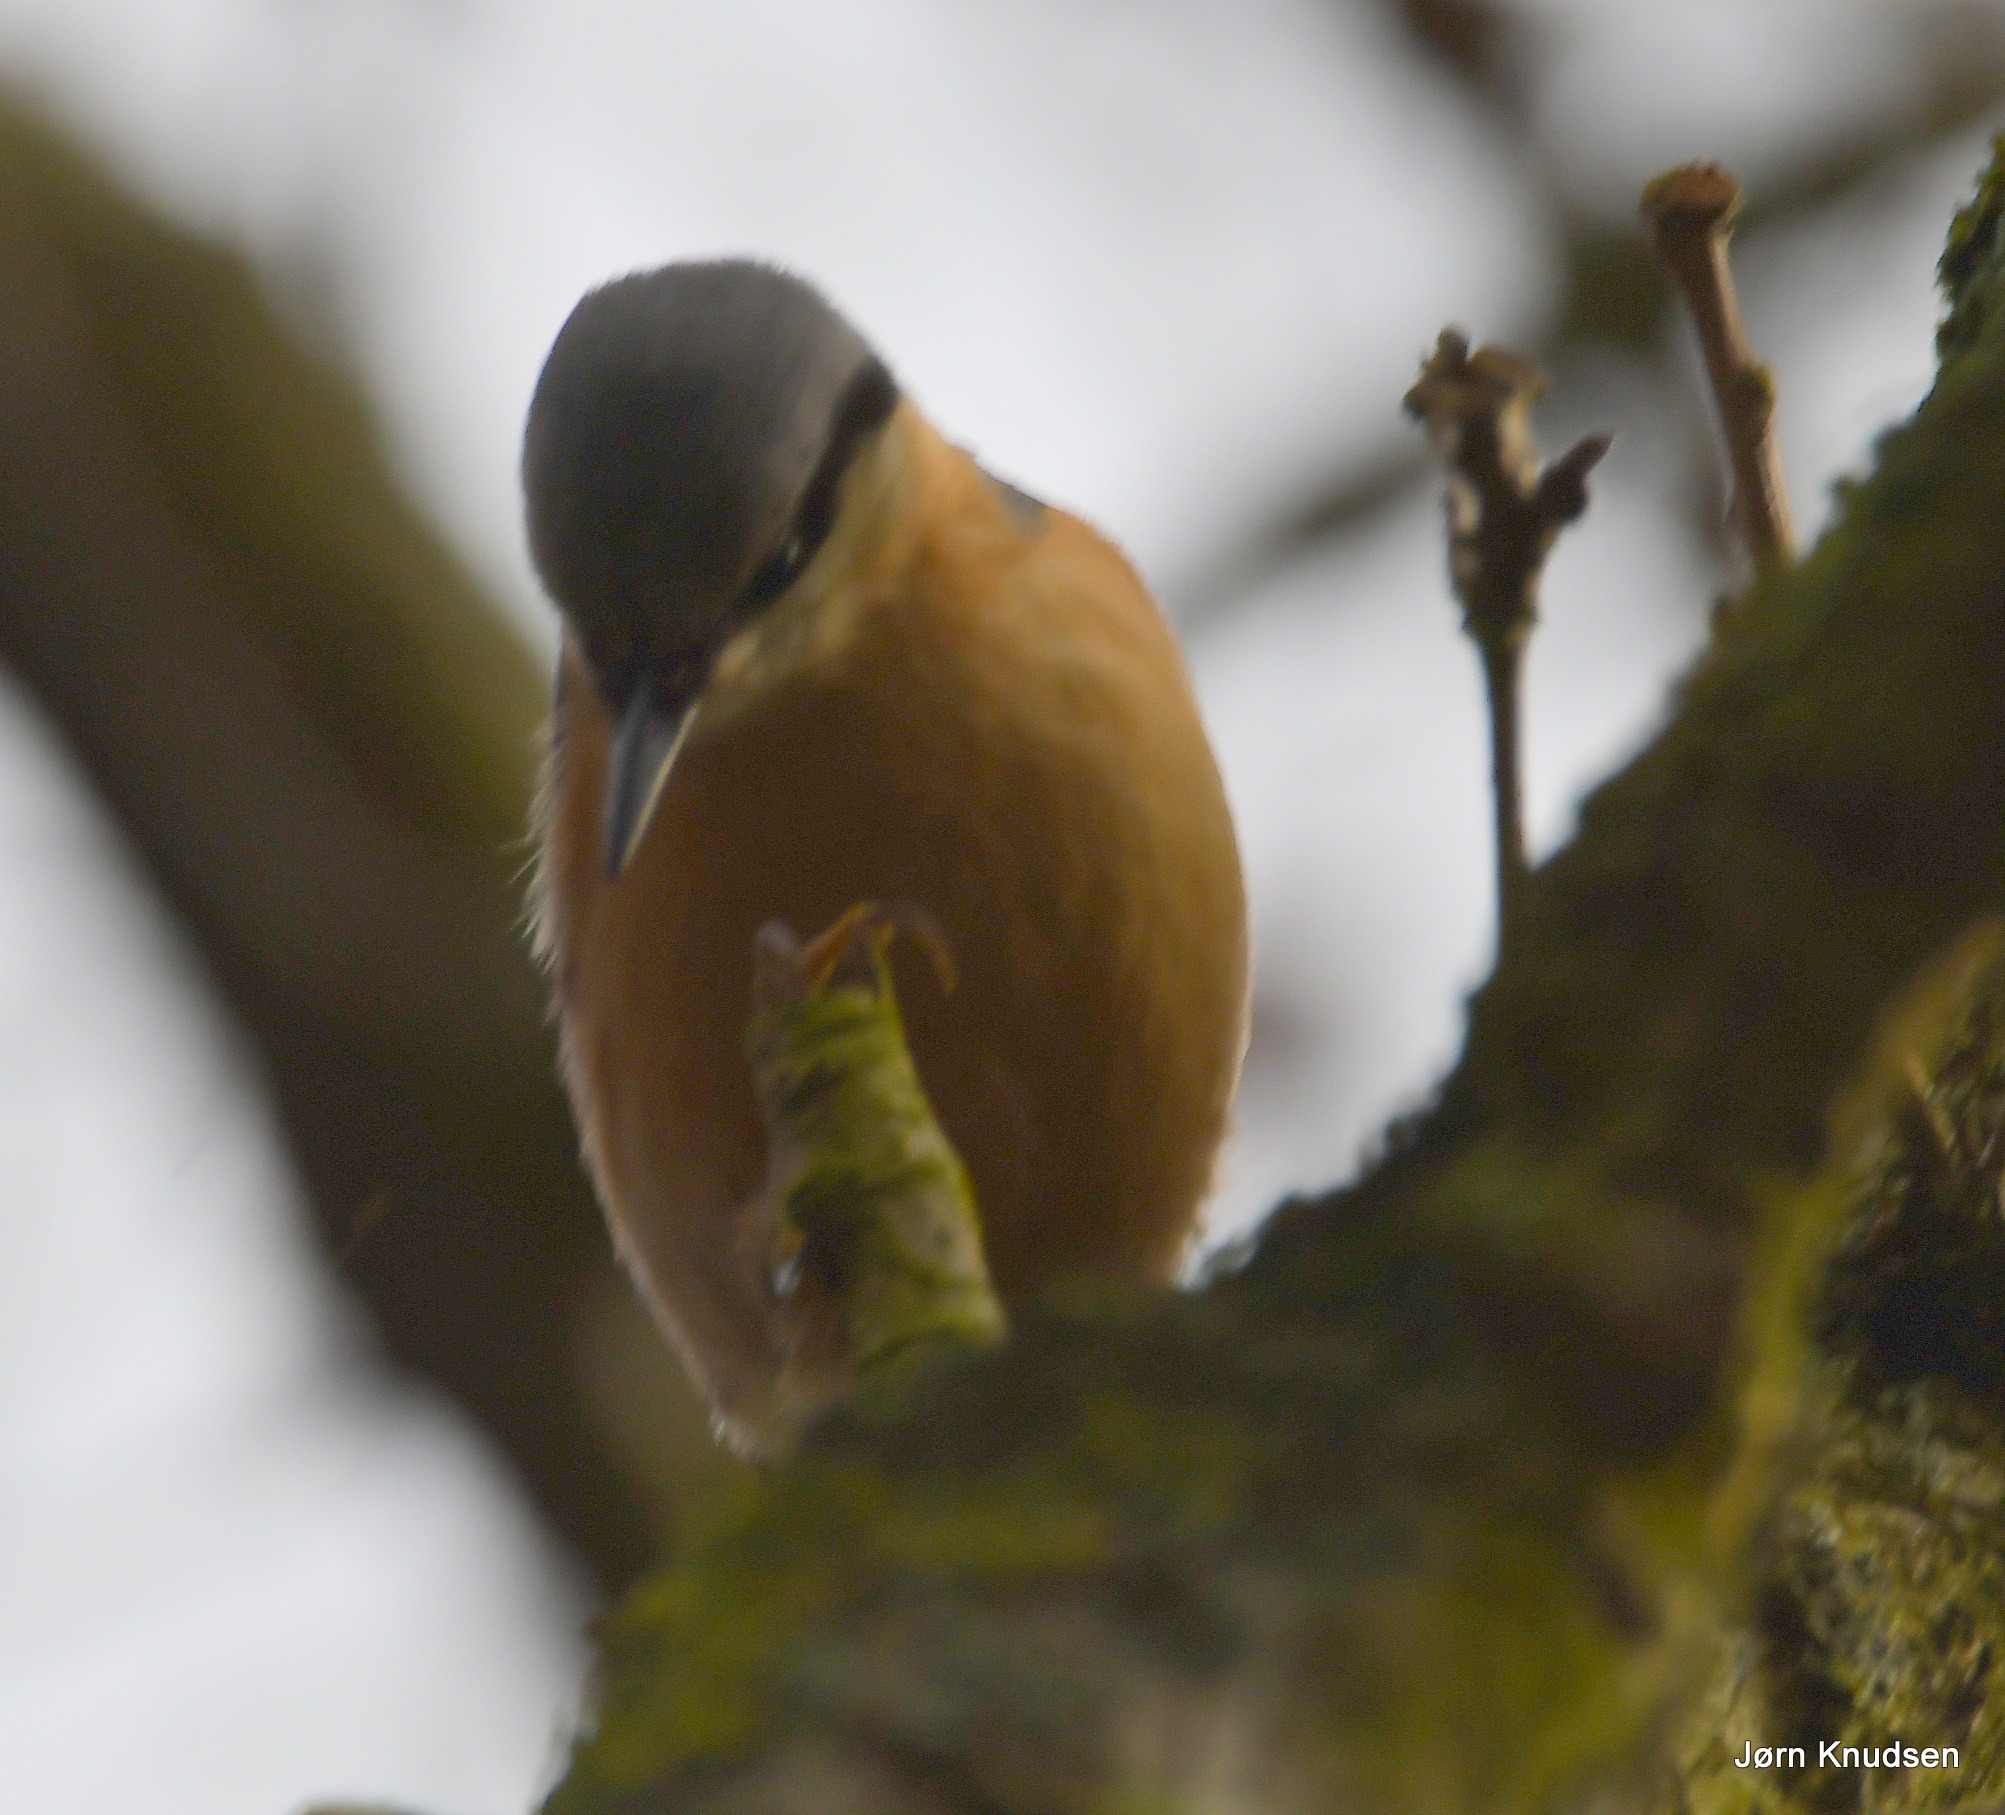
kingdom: Animalia
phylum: Chordata
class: Aves
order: Passeriformes
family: Sittidae
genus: Sitta
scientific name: Sitta europaea
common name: Spætmejse
